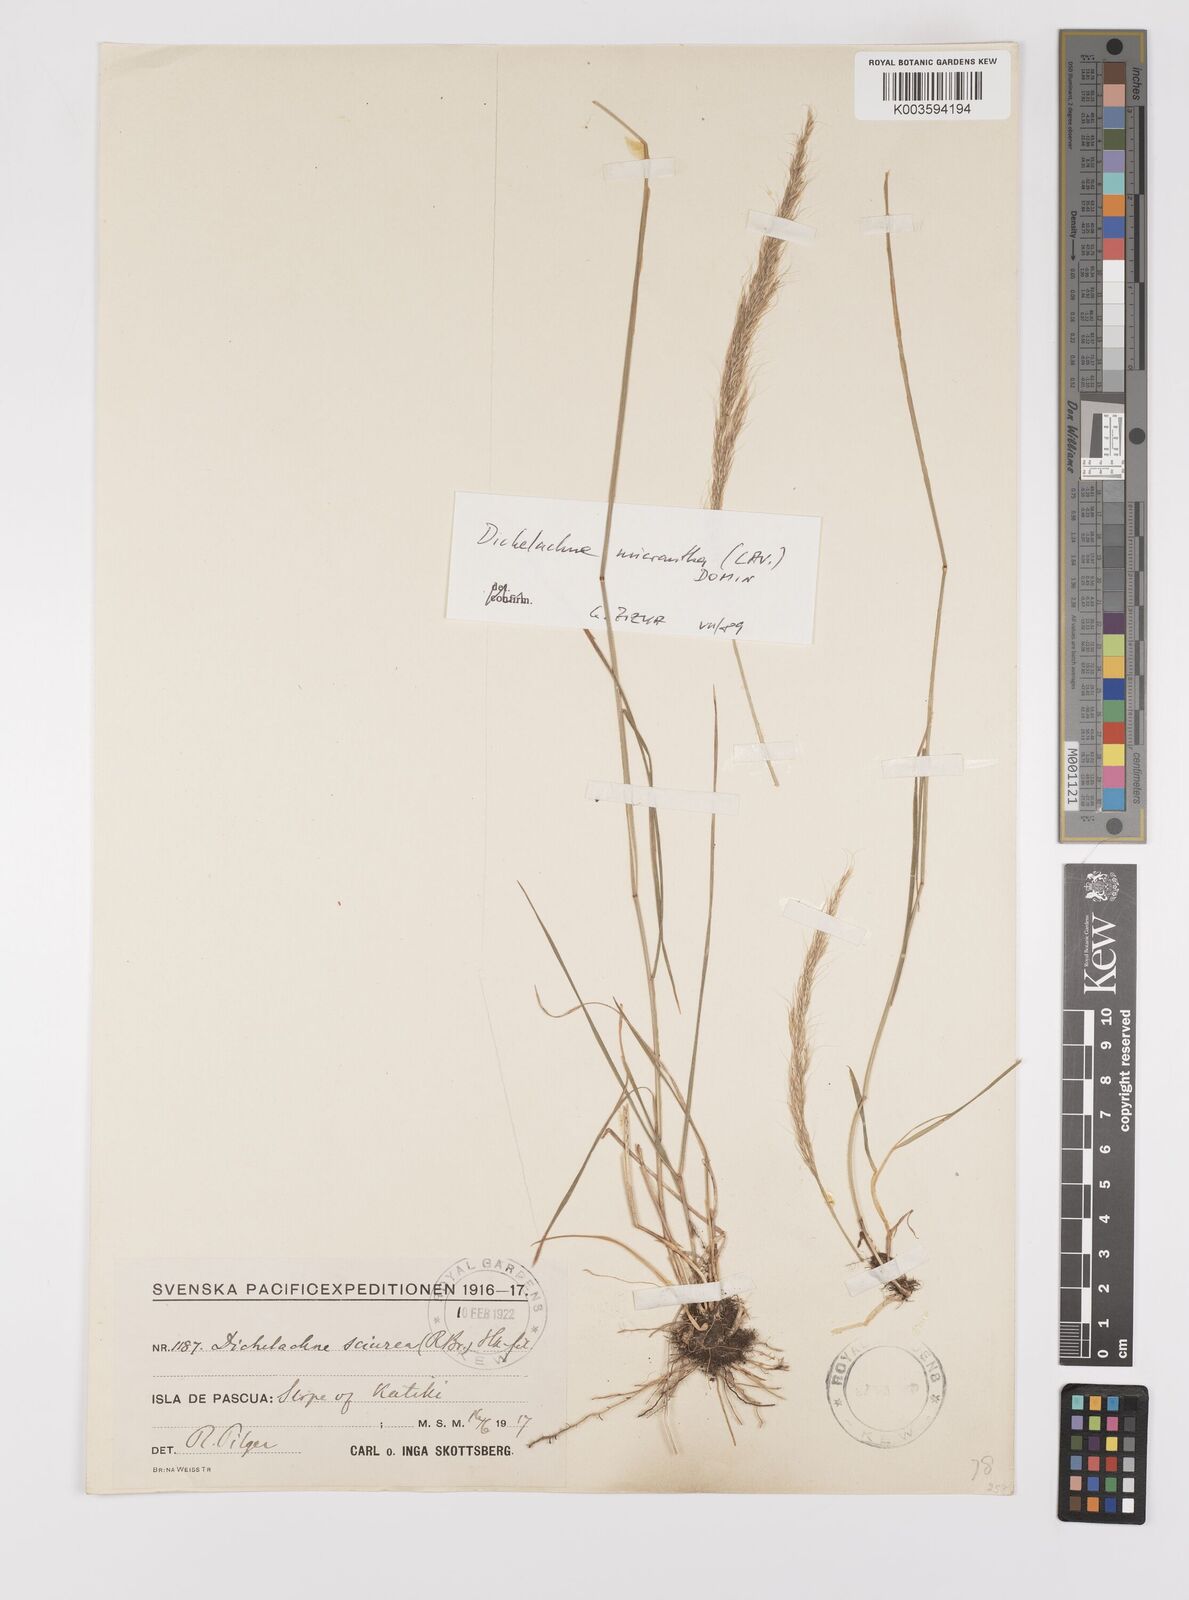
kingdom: Plantae
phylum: Tracheophyta
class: Liliopsida
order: Poales
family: Poaceae
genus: Dichelachne
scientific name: Dichelachne micrantha
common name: Plumegrass
